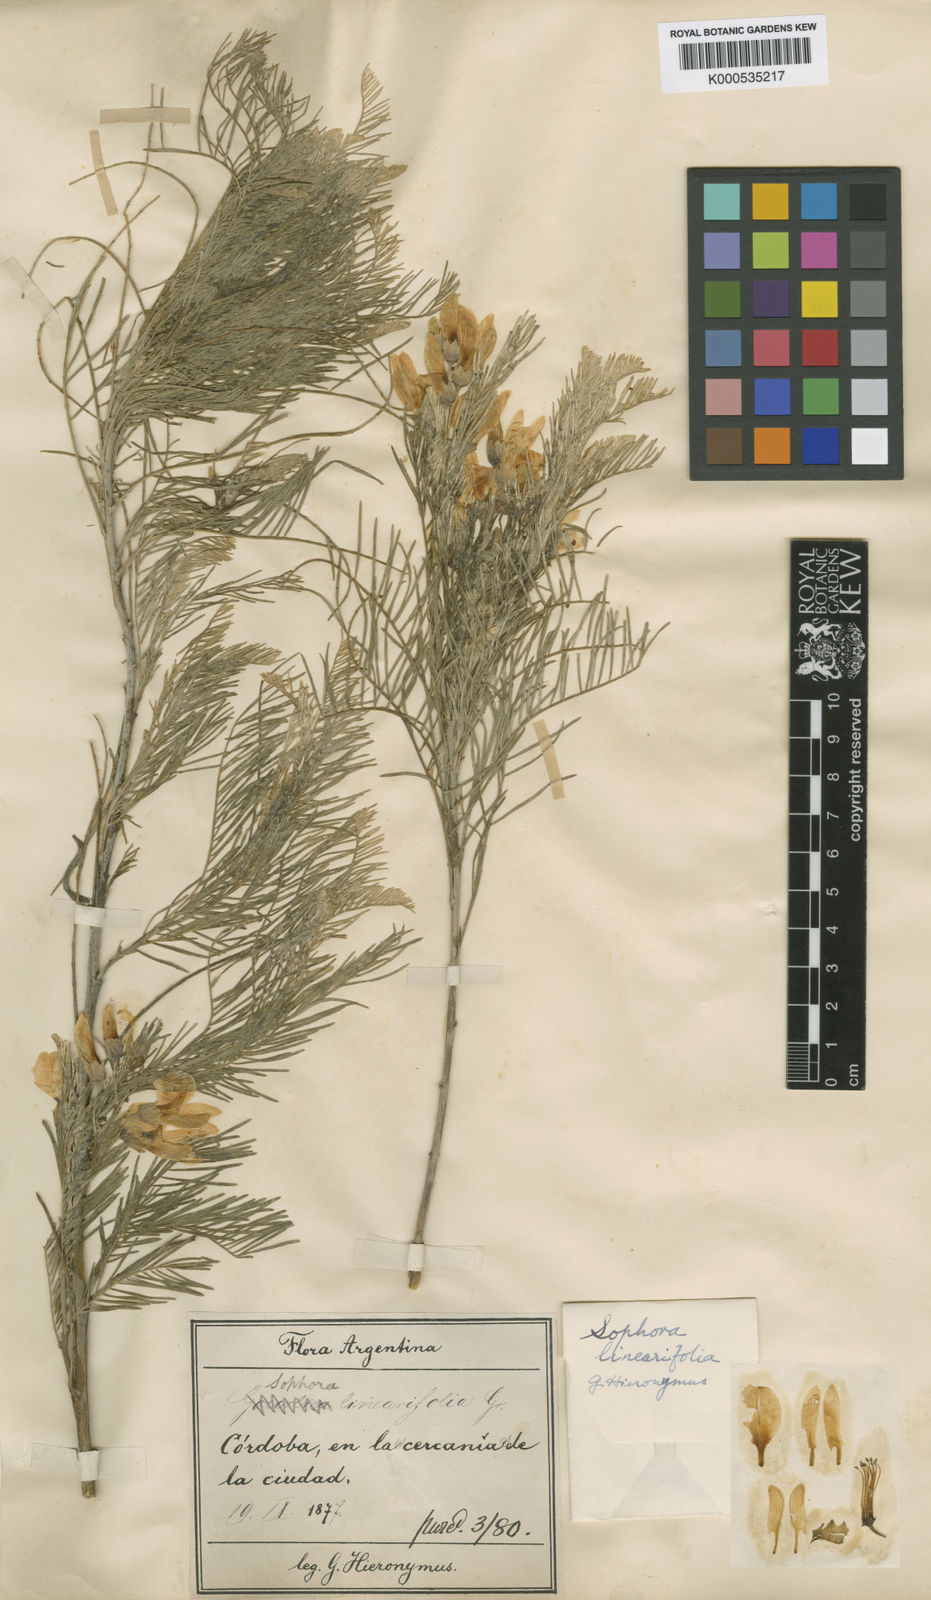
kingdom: Plantae
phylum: Tracheophyta
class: Magnoliopsida
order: Fabales
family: Fabaceae
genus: Sophora
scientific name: Sophora linearifolia
